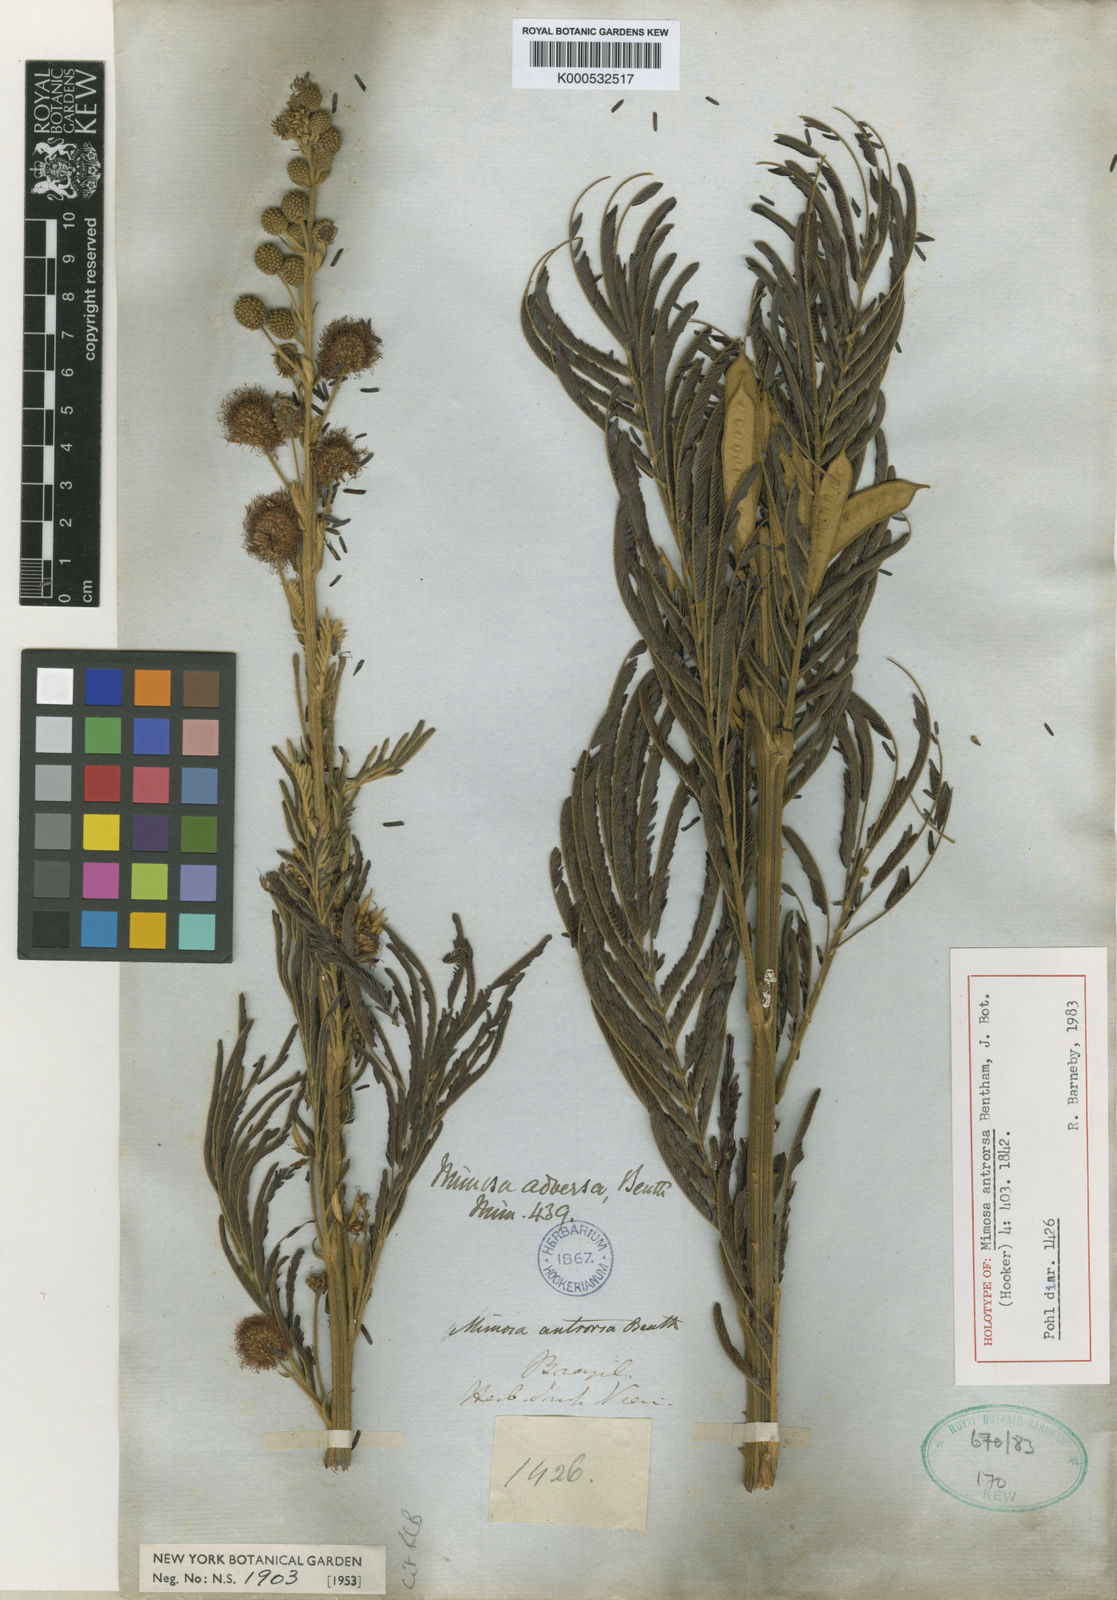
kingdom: Plantae
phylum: Tracheophyta
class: Magnoliopsida
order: Fabales
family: Fabaceae
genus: Mimosa
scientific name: Mimosa antrorsa
